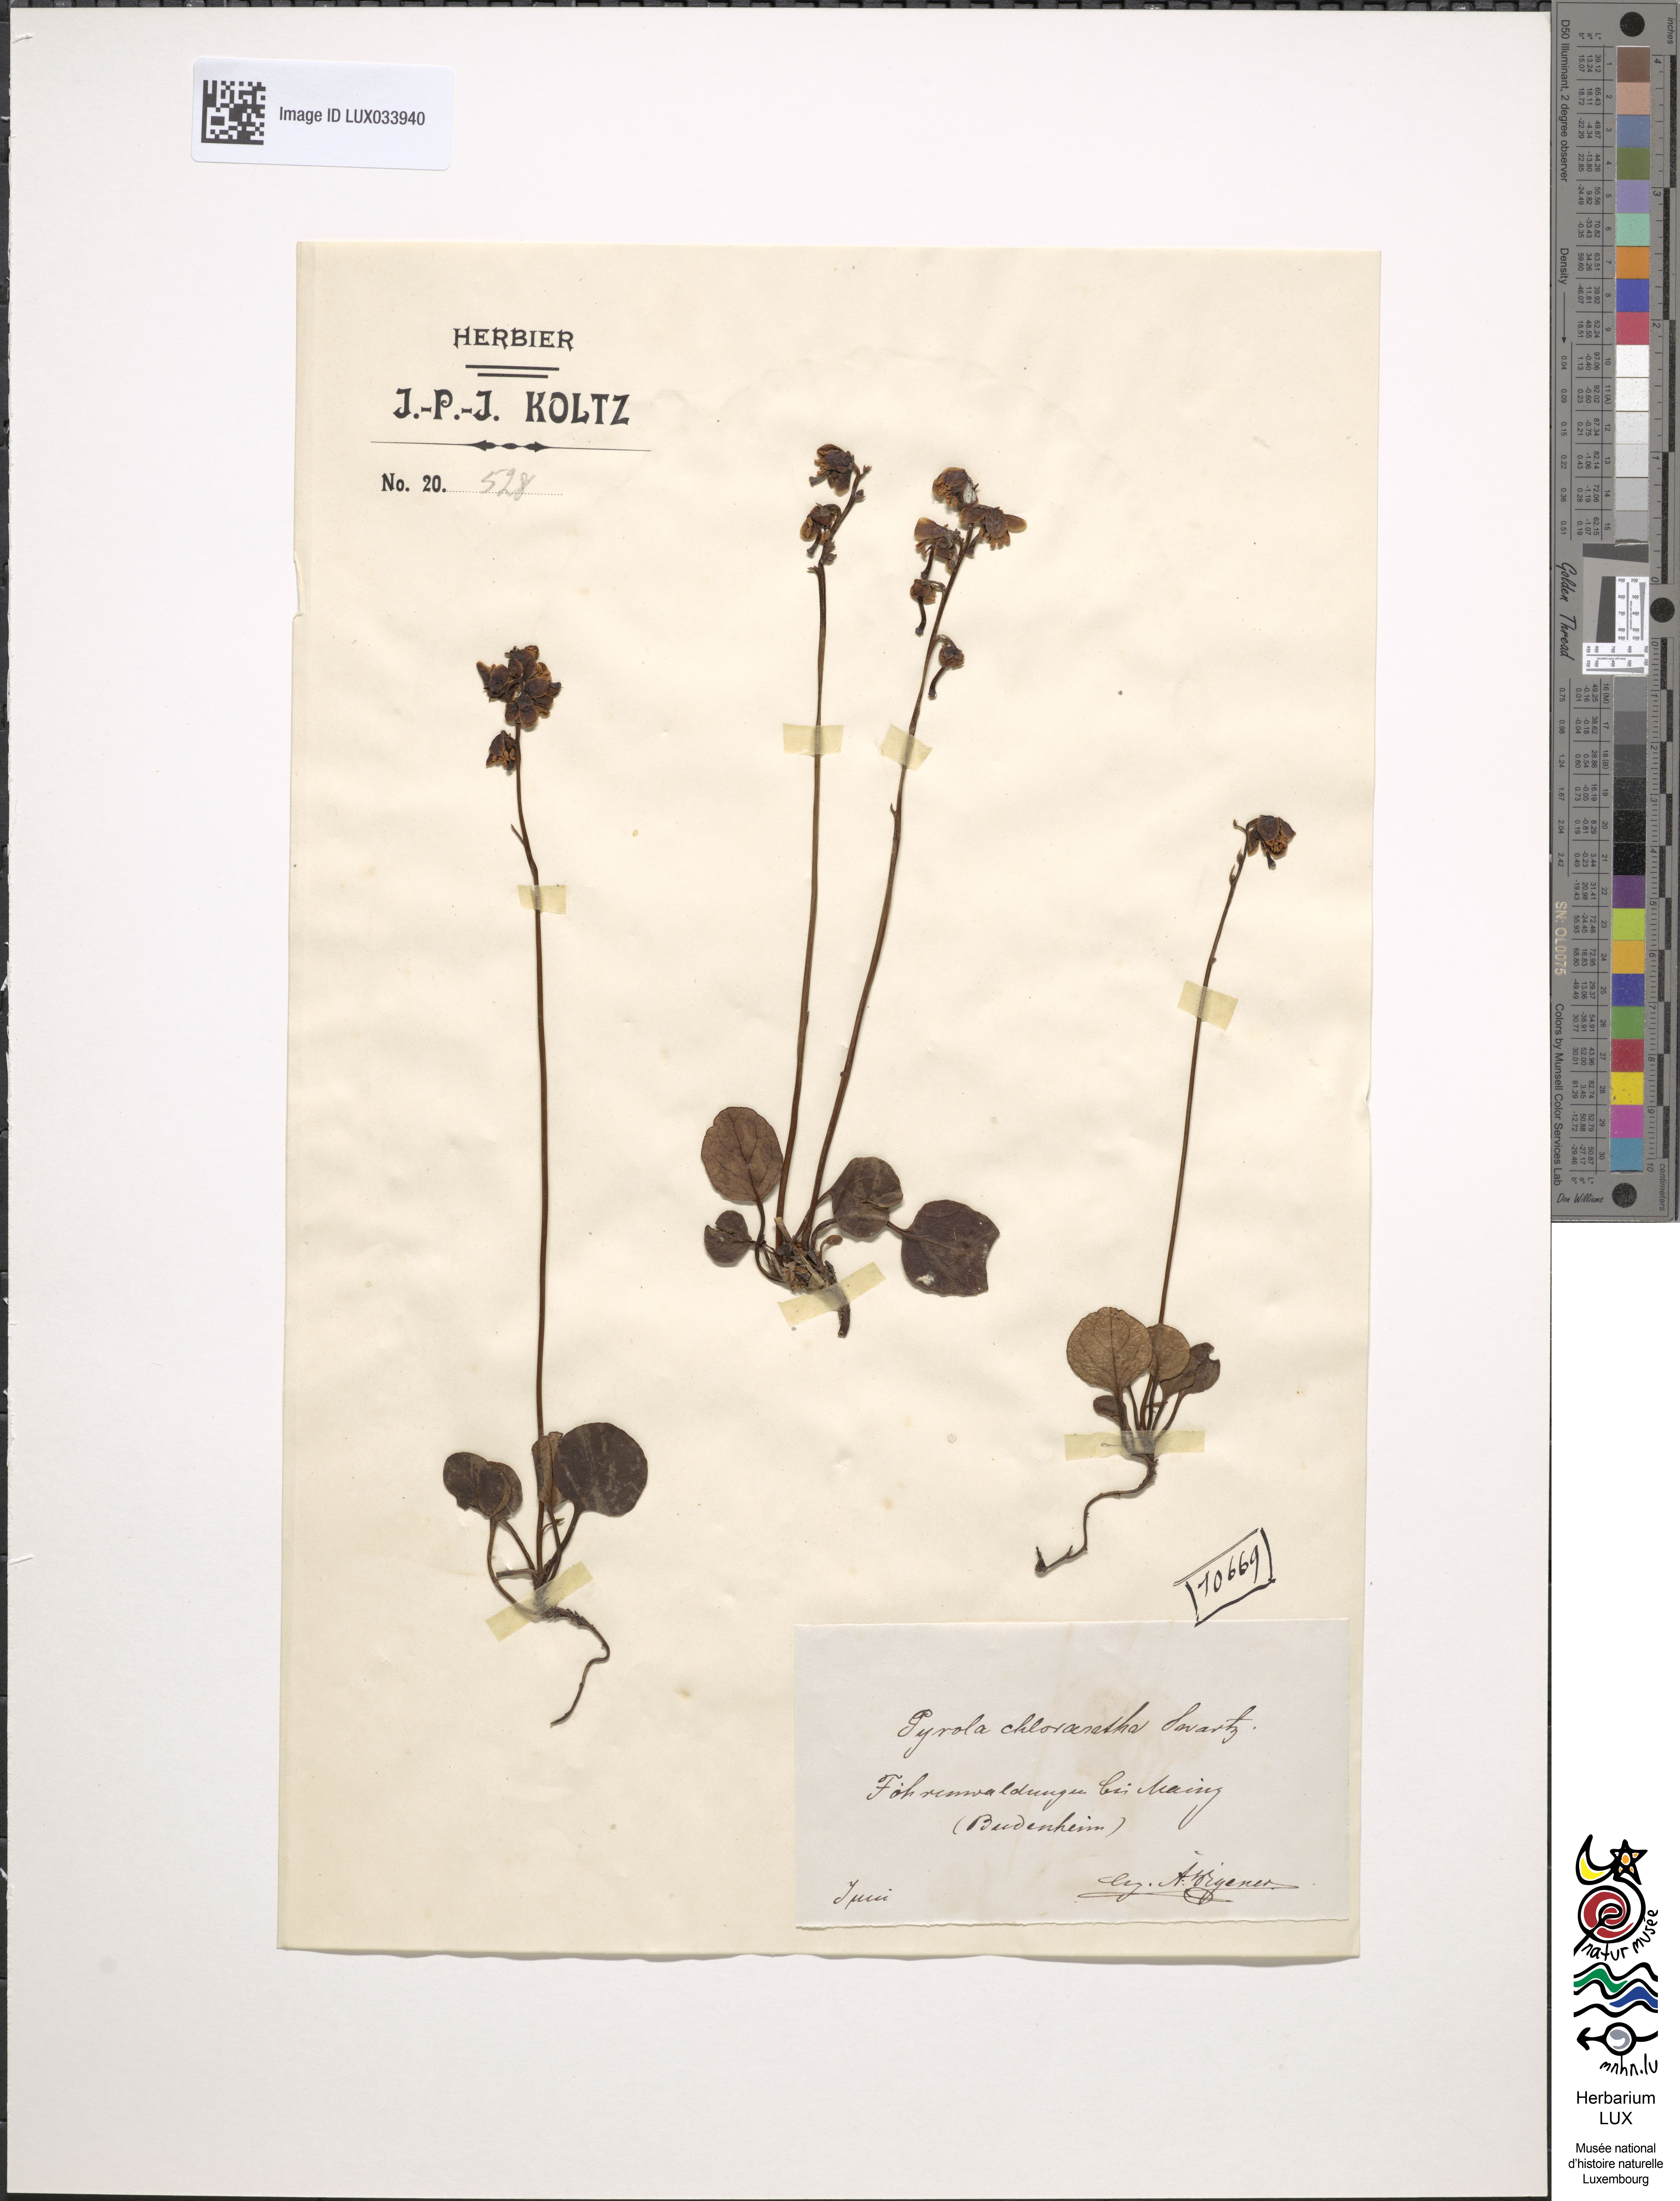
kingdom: Plantae
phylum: Tracheophyta
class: Magnoliopsida
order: Ericales
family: Ericaceae
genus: Pyrola
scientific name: Pyrola chlorantha
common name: Green wintergreen
